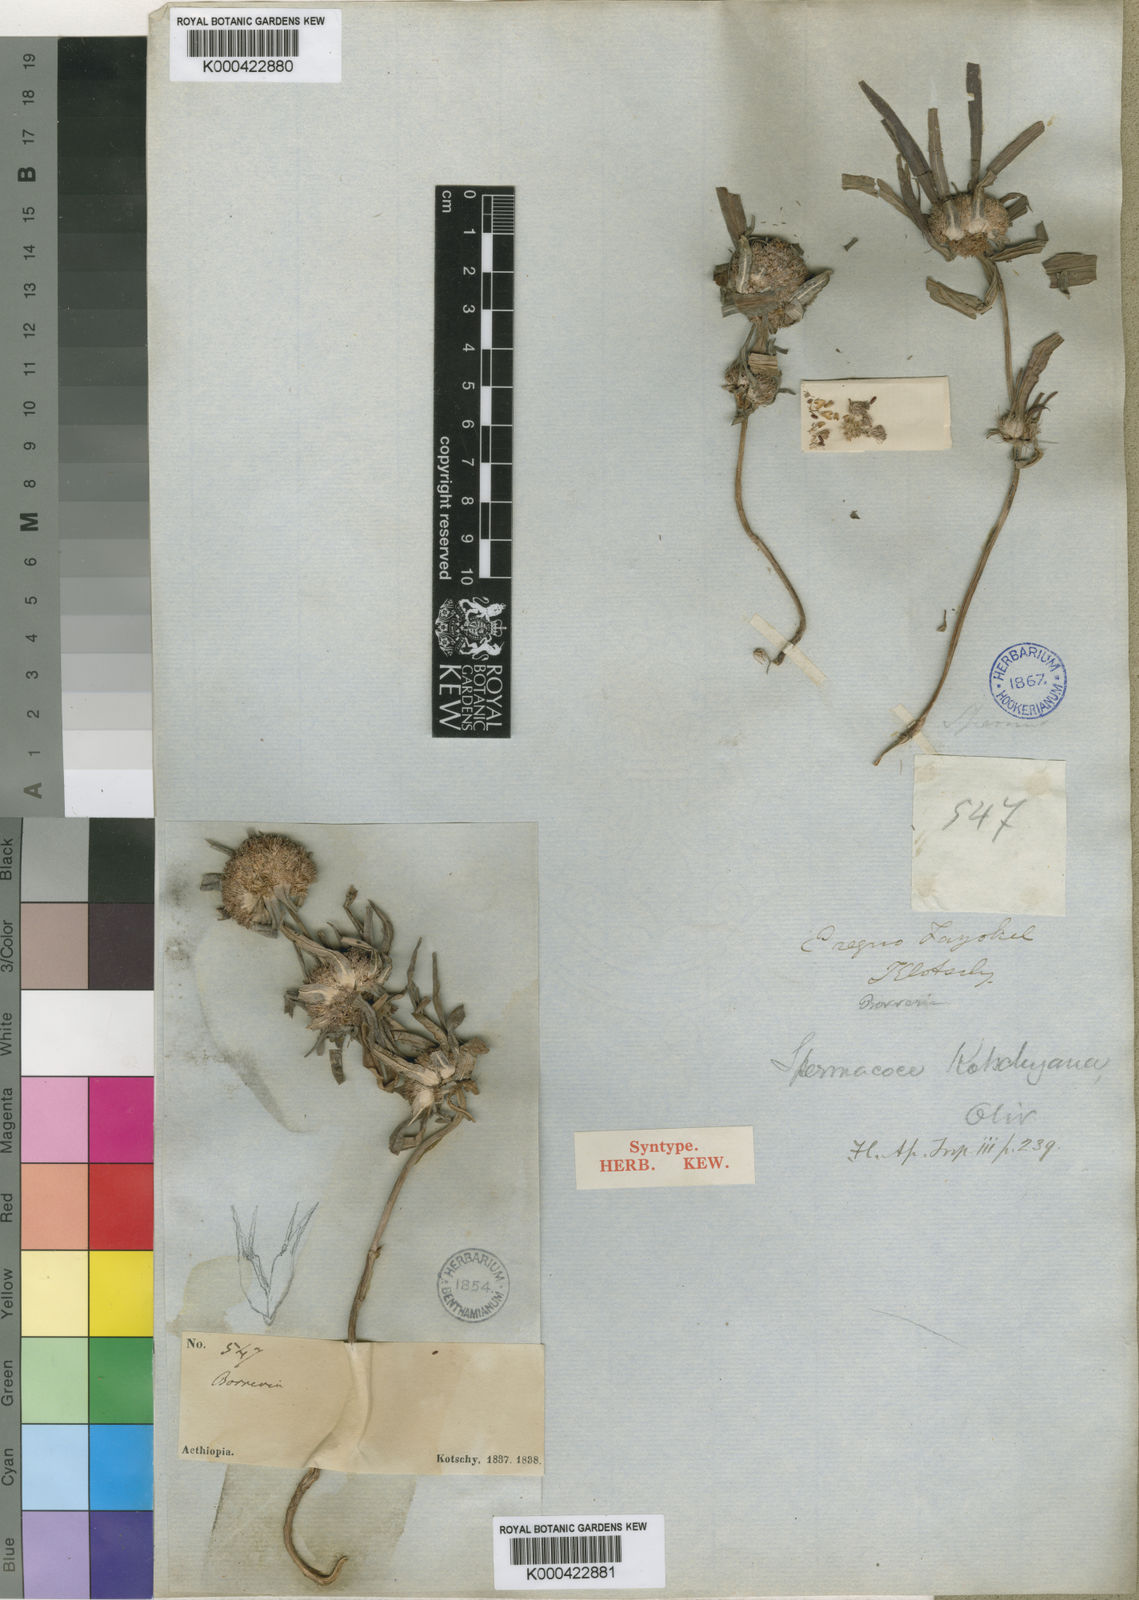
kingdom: Plantae
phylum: Tracheophyta
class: Magnoliopsida
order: Gentianales
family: Rubiaceae
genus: Spermacoce
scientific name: Spermacoce chaetocephala
